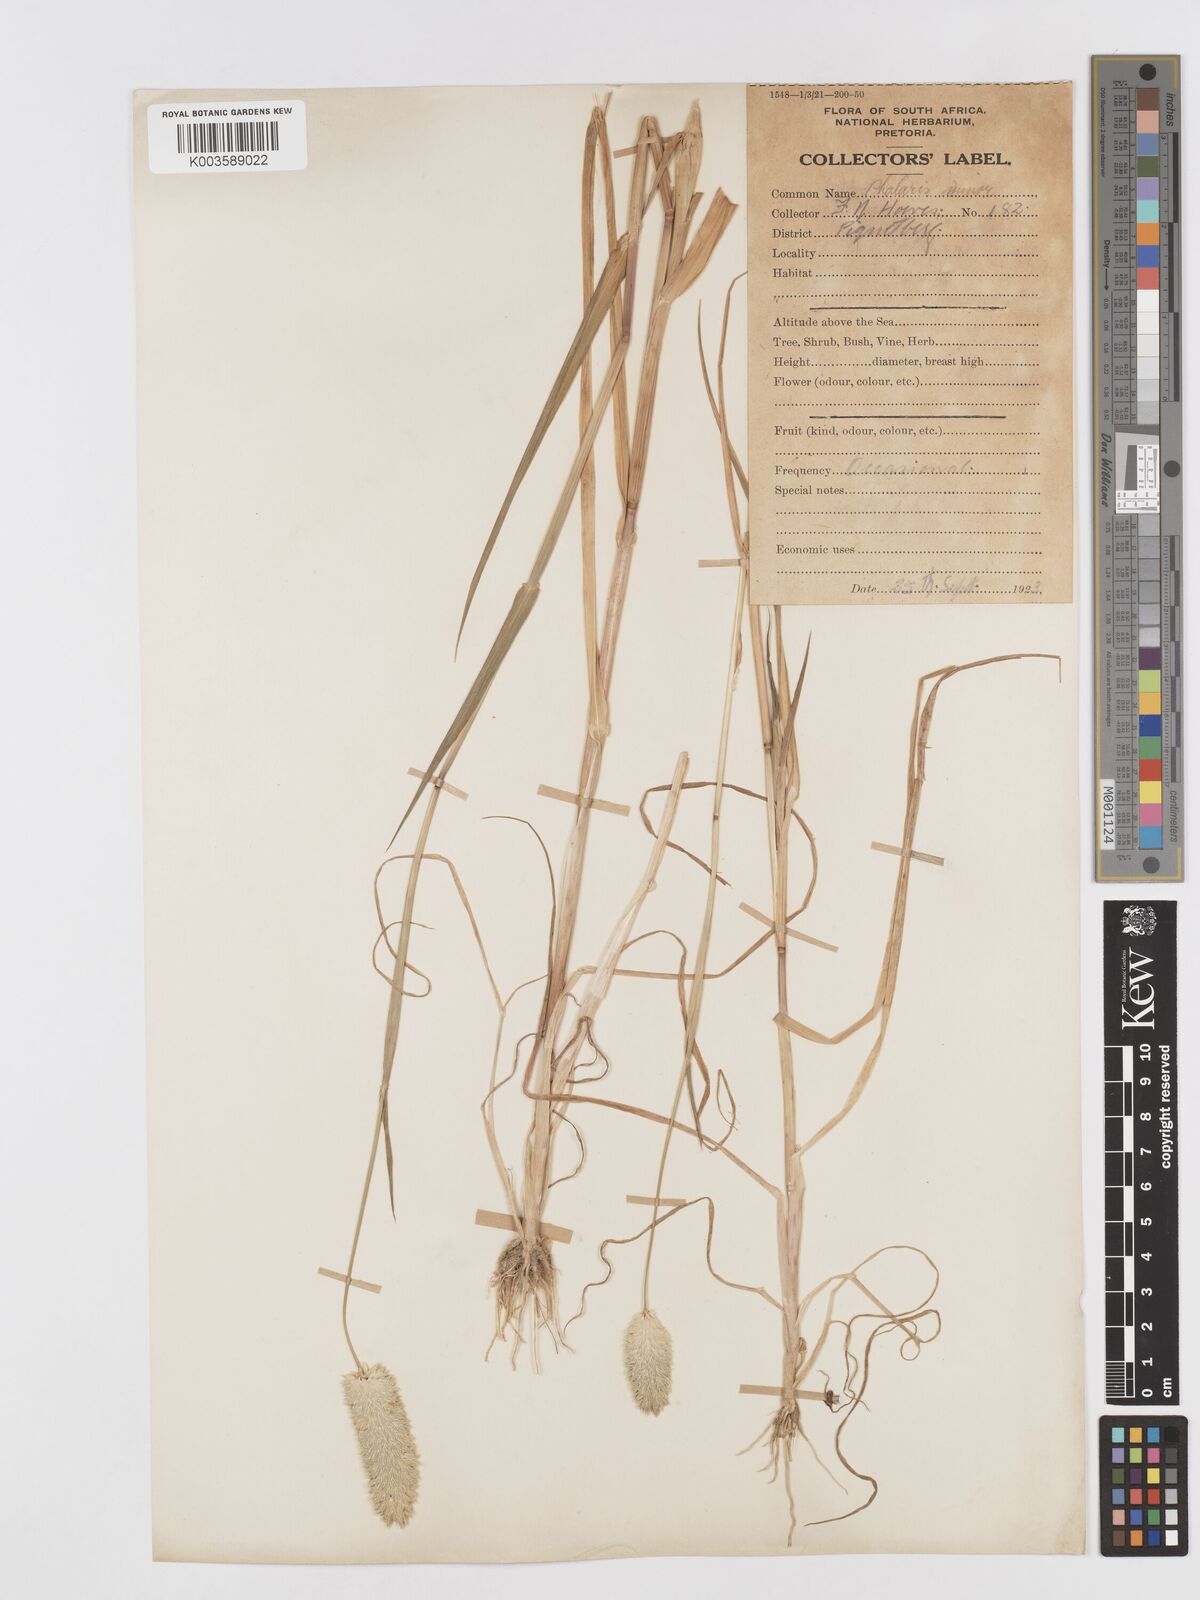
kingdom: Plantae
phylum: Tracheophyta
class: Liliopsida
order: Poales
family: Poaceae
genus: Phalaris
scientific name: Phalaris minor
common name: Littleseed canarygrass
